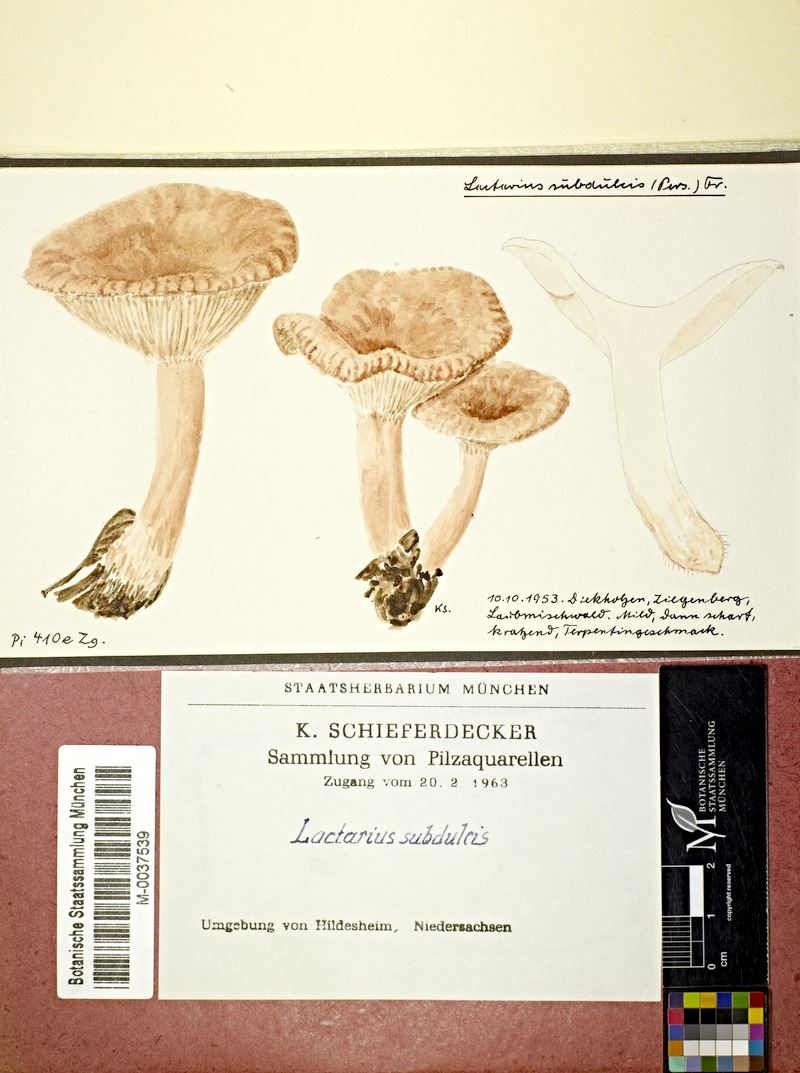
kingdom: Fungi
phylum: Basidiomycota
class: Agaricomycetes
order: Russulales
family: Russulaceae
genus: Lactarius
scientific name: Lactarius
